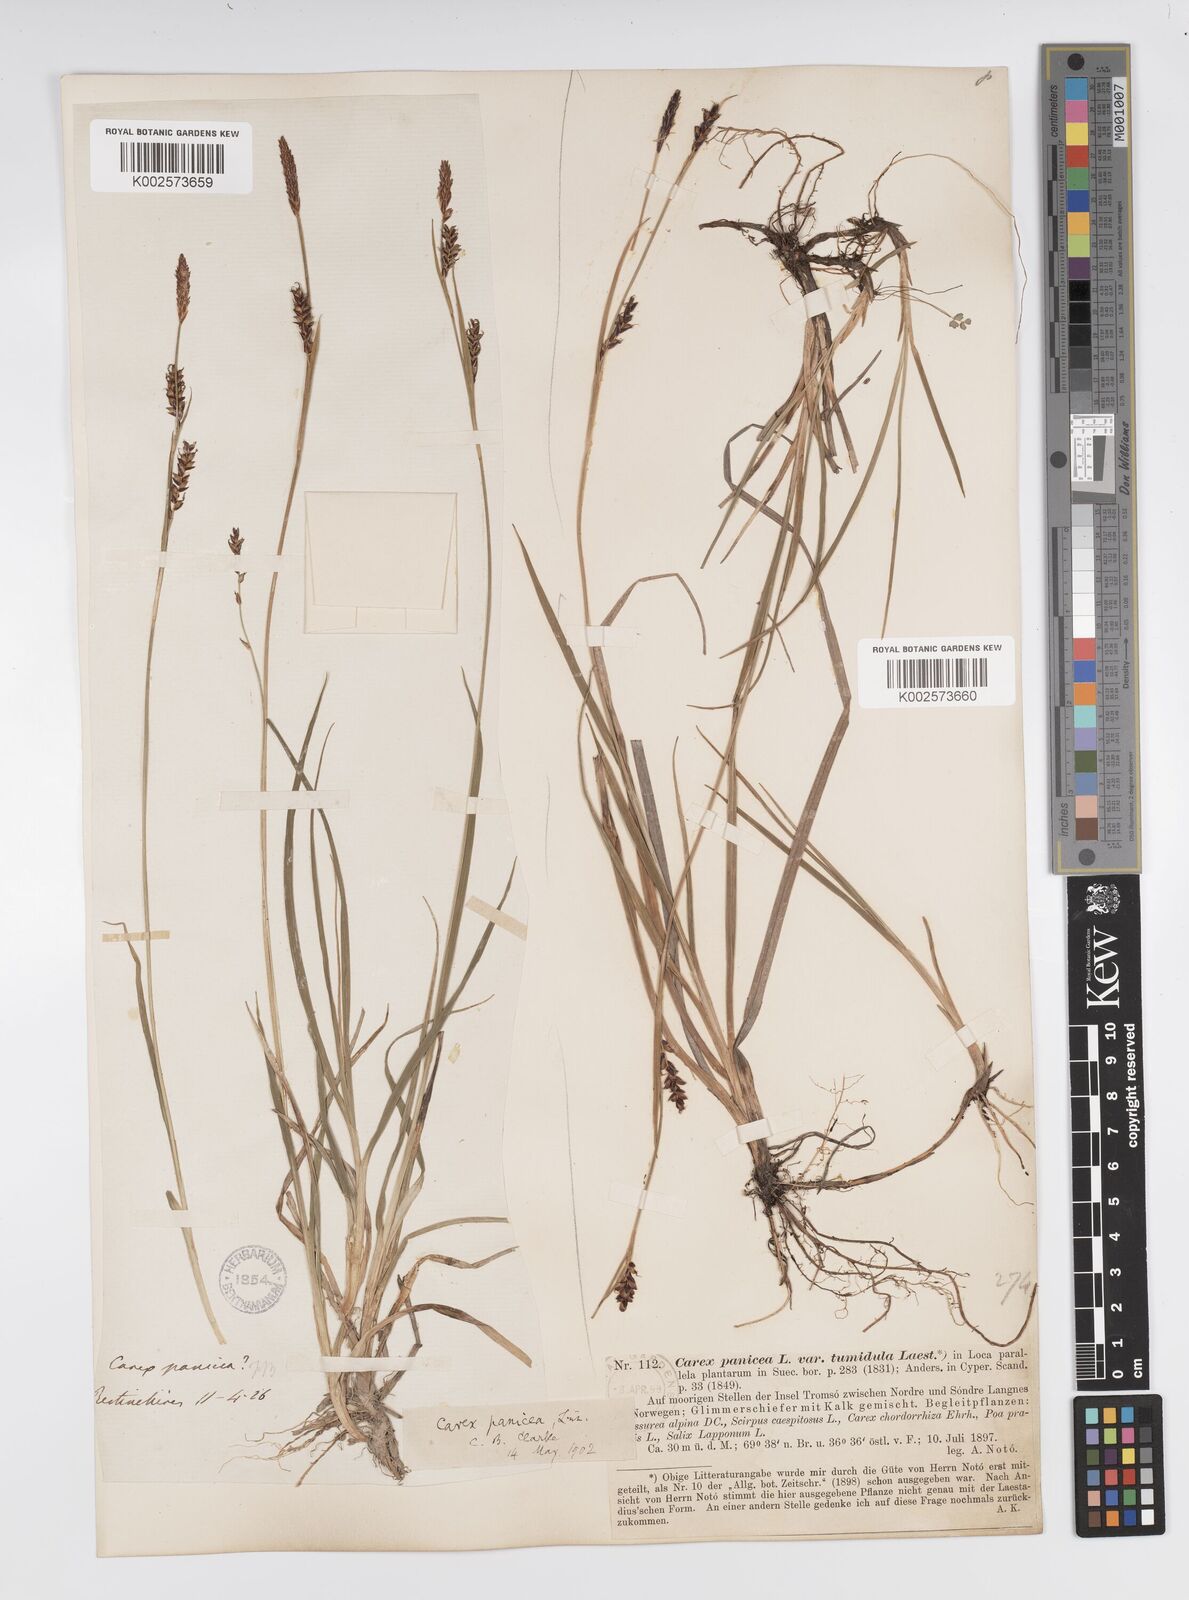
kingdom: Plantae
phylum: Tracheophyta
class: Liliopsida
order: Poales
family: Cyperaceae
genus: Carex
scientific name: Carex panicea
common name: Carnation sedge
